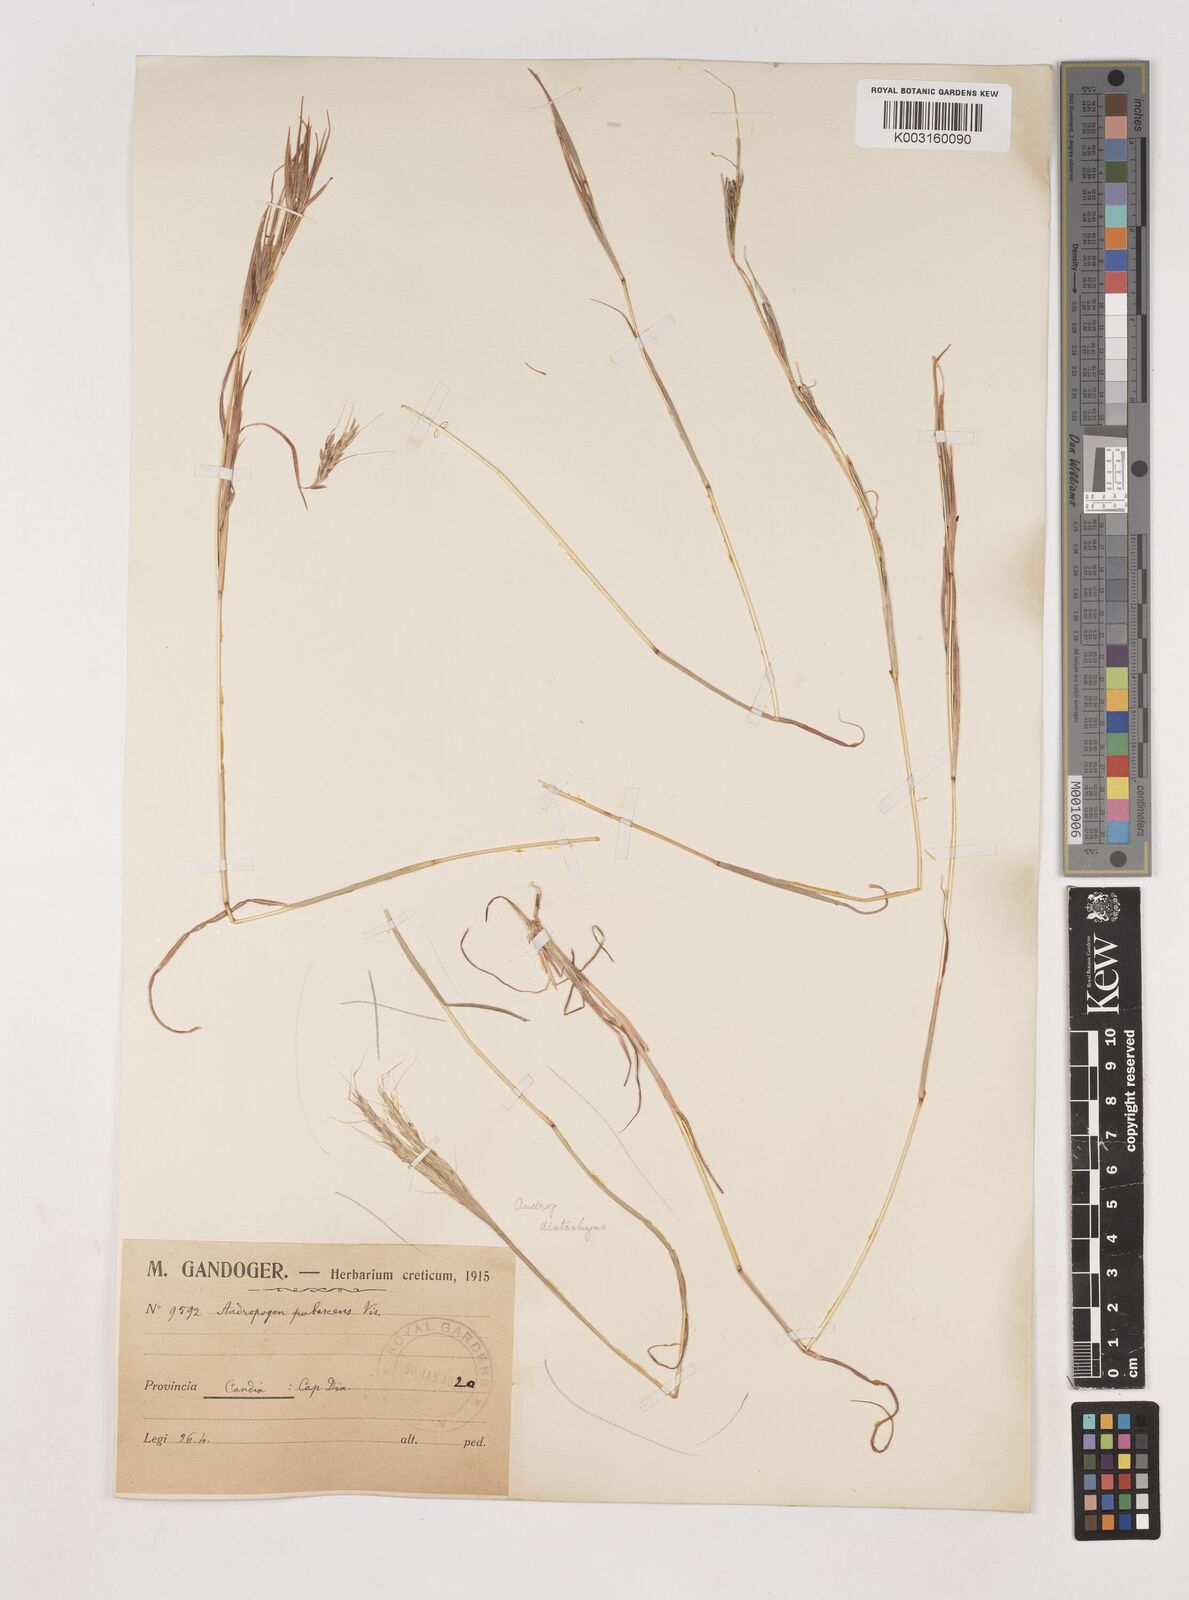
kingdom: Plantae
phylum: Tracheophyta
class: Liliopsida
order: Poales
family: Poaceae
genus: Hyparrhenia
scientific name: Hyparrhenia hirta
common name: Thatching grass
